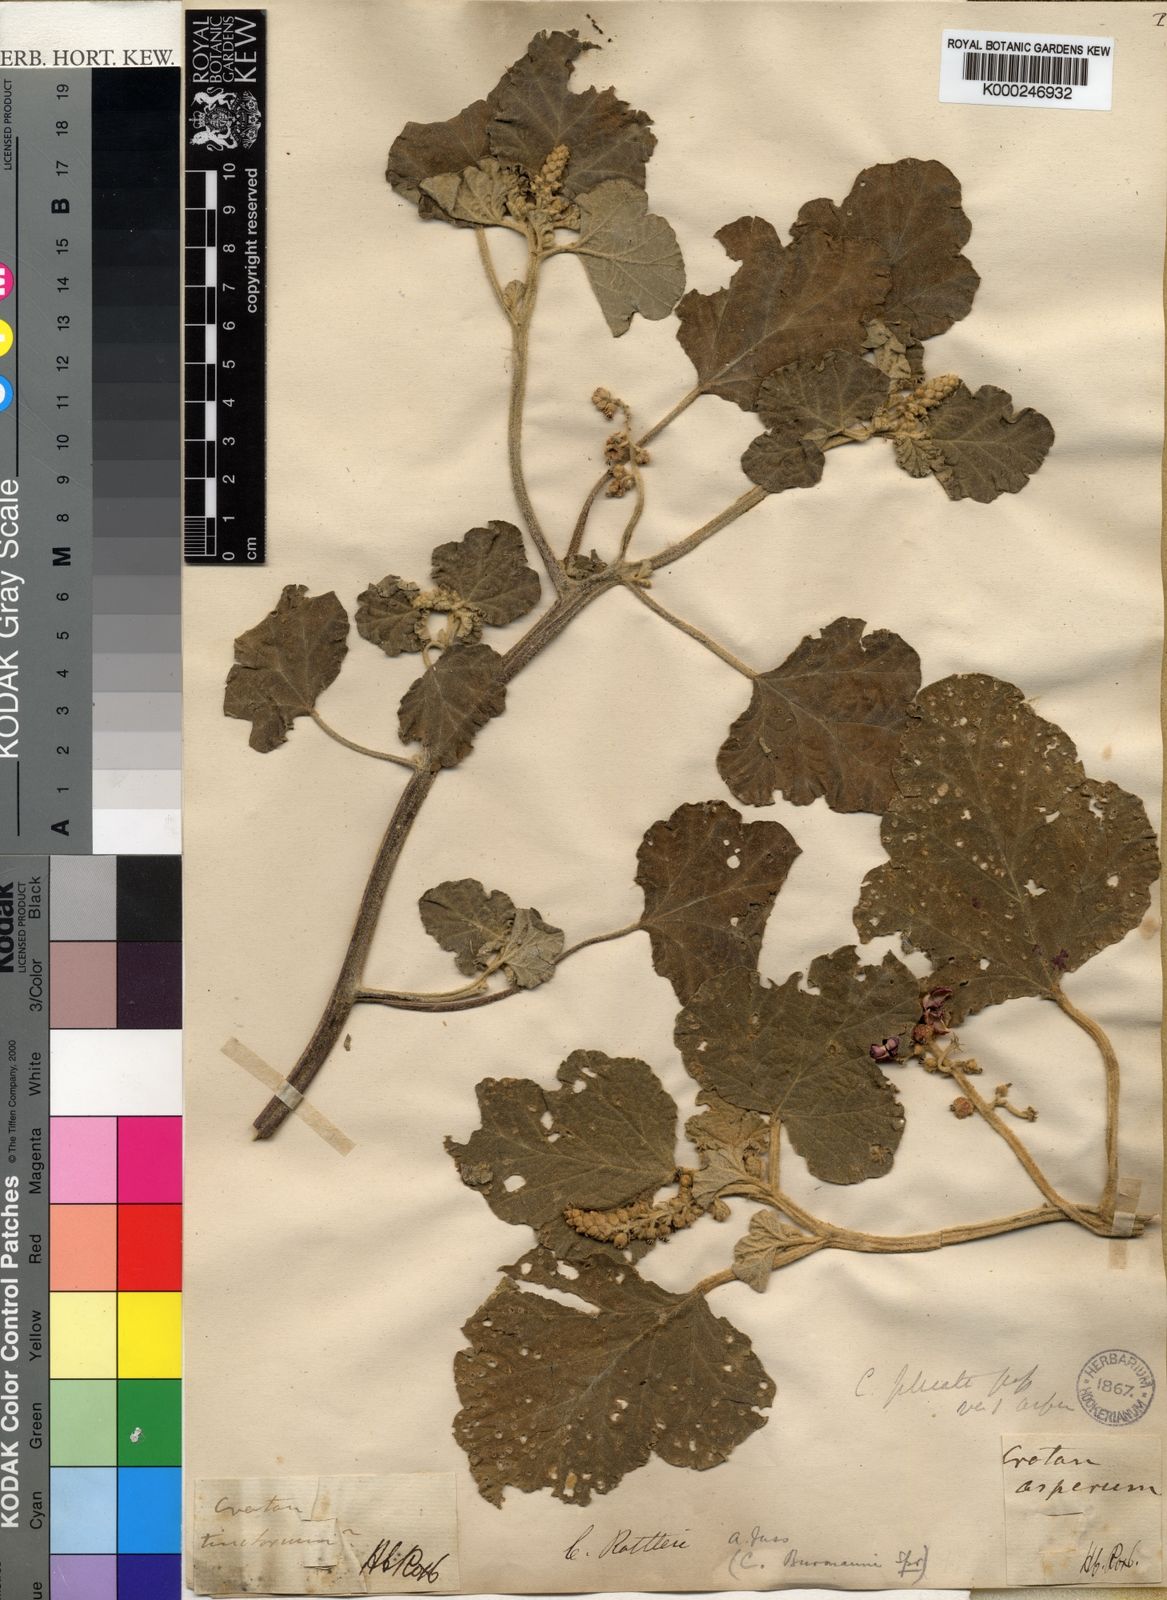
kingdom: Plantae
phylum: Tracheophyta
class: Magnoliopsida
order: Malpighiales
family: Euphorbiaceae
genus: Chrozophora
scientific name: Chrozophora rottleri
